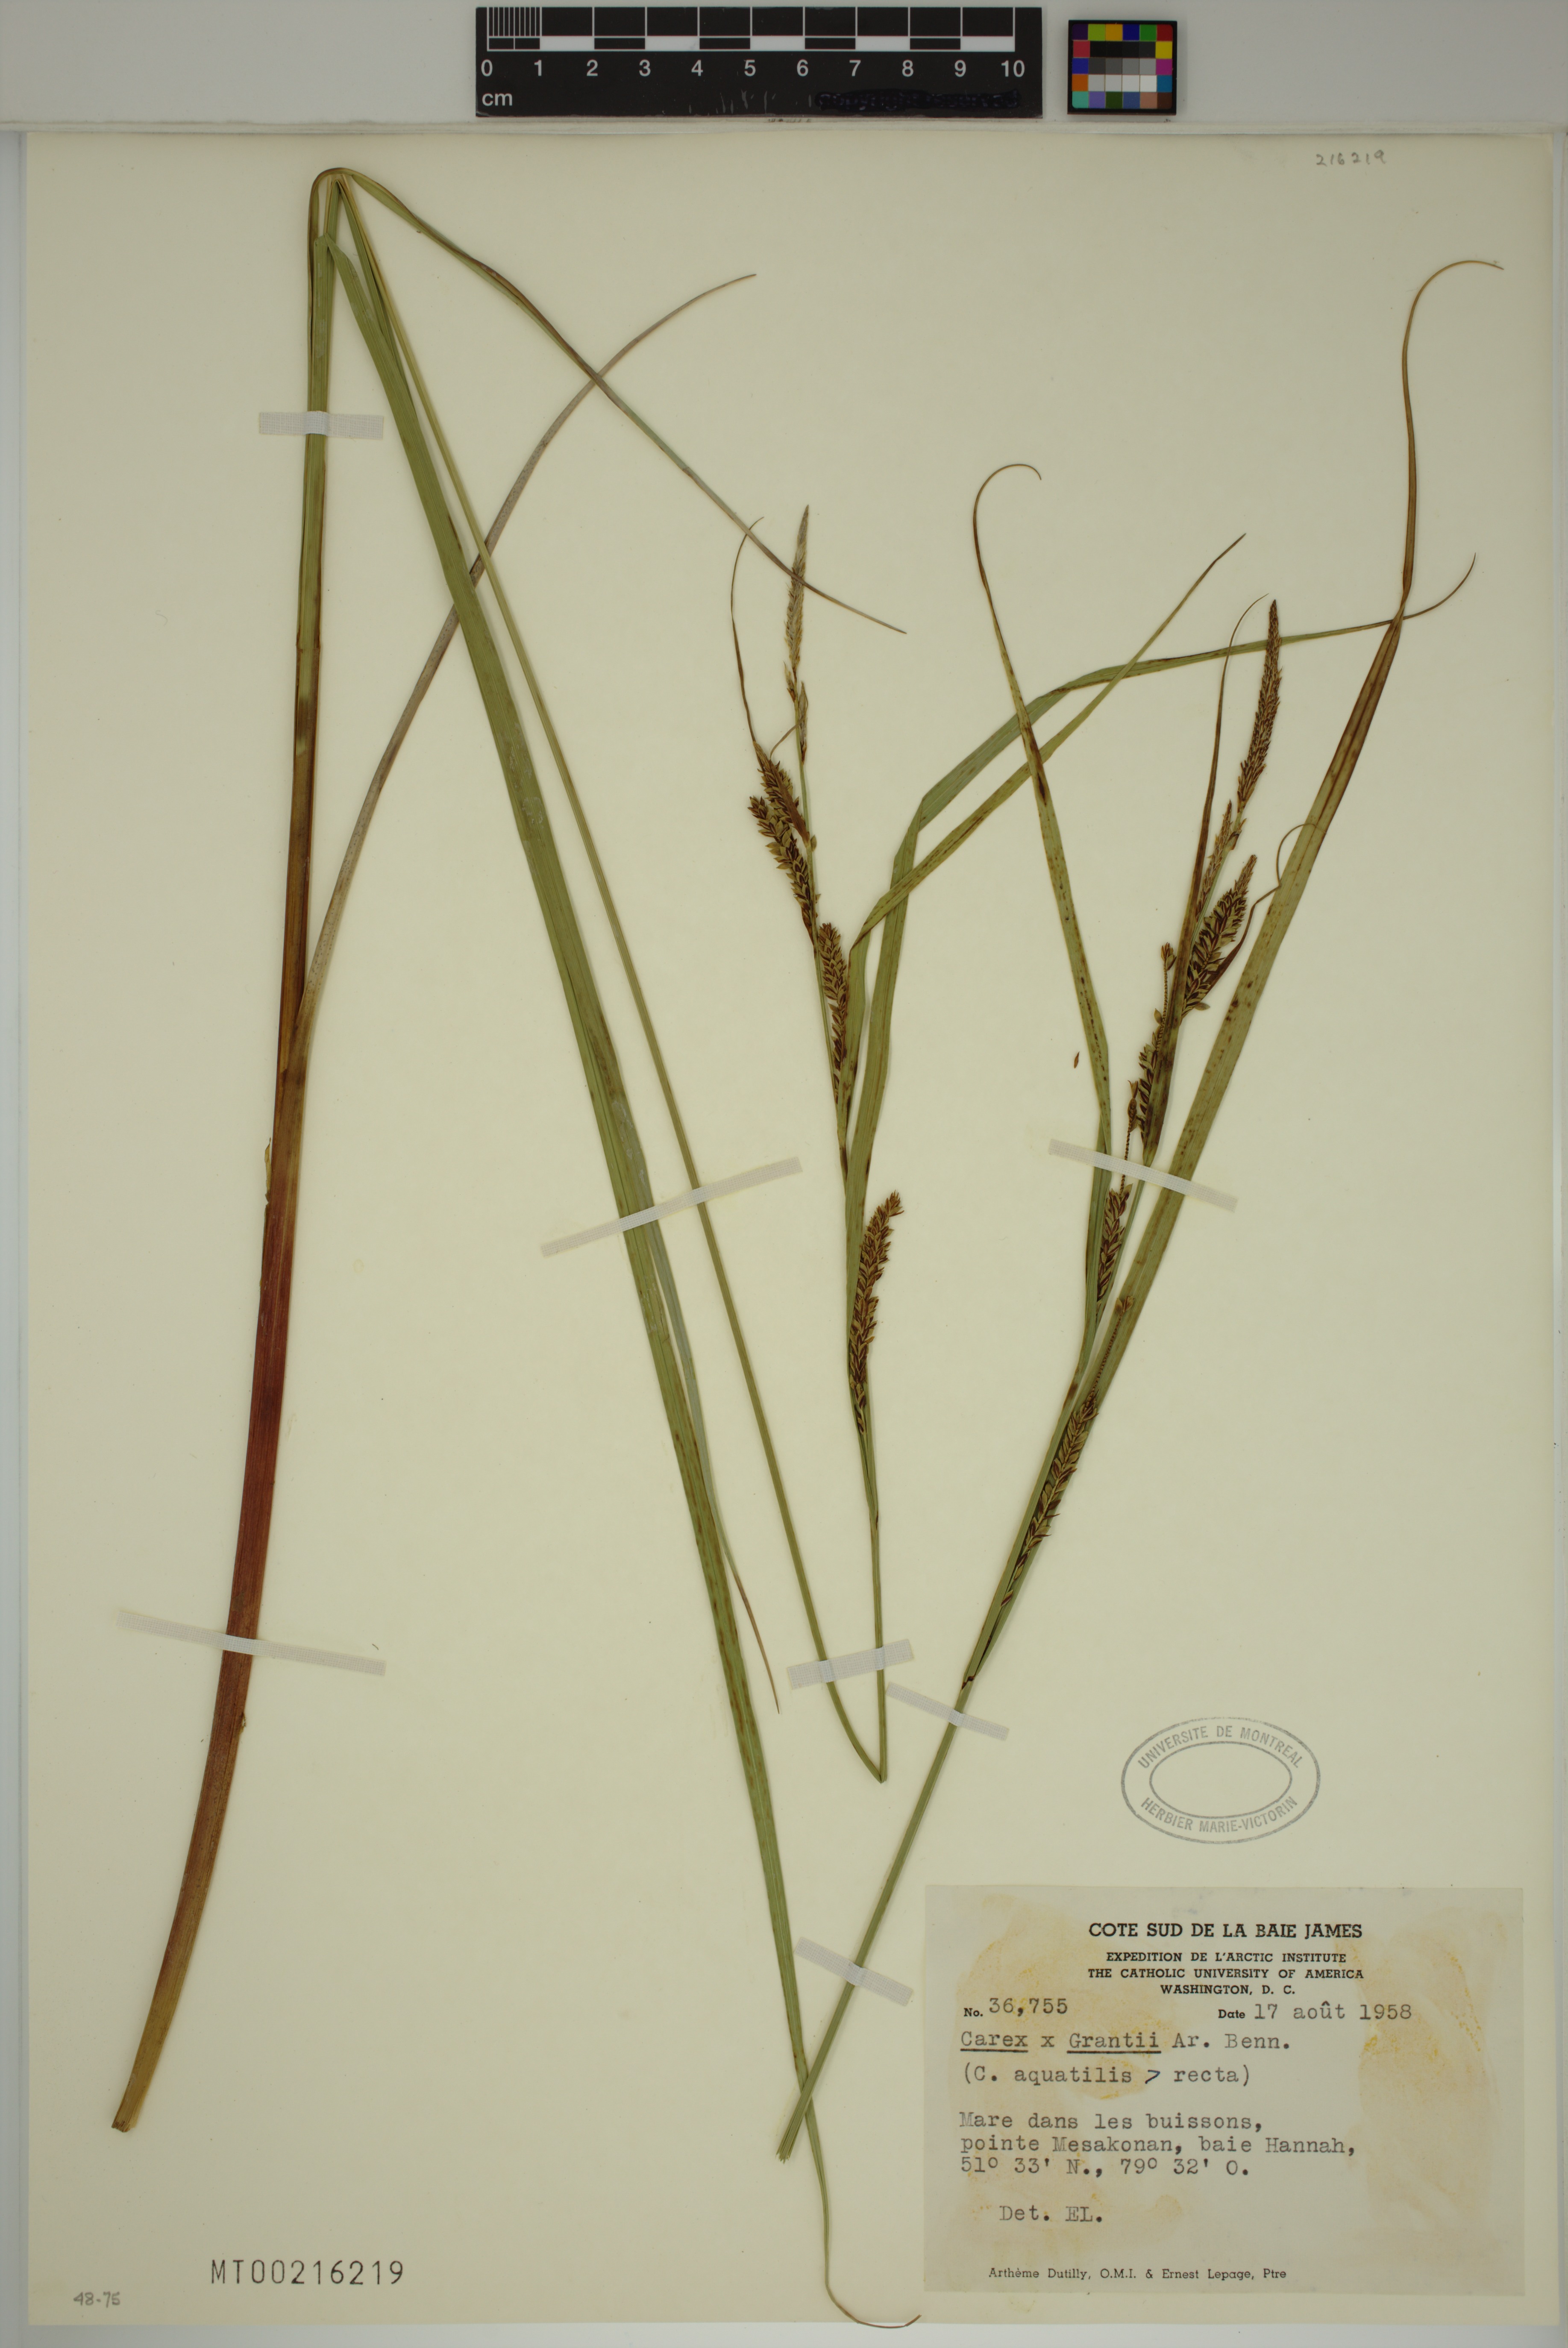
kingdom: Plantae
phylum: Tracheophyta
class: Liliopsida
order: Poales
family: Cyperaceae
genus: Carex
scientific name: Carex grantii
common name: Grant's sedge
